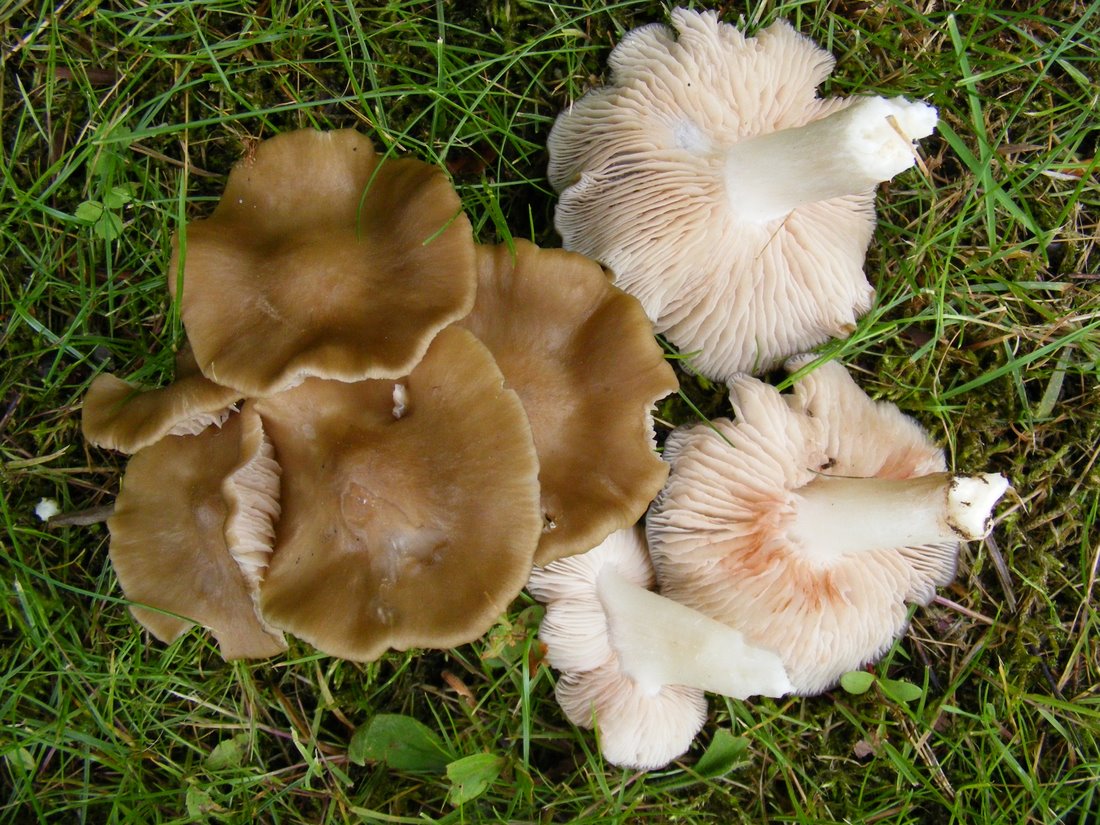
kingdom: Fungi
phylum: Basidiomycota
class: Agaricomycetes
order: Agaricales
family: Entolomataceae
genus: Entoloma
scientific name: Entoloma clypeatum
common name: flammet rødblad
